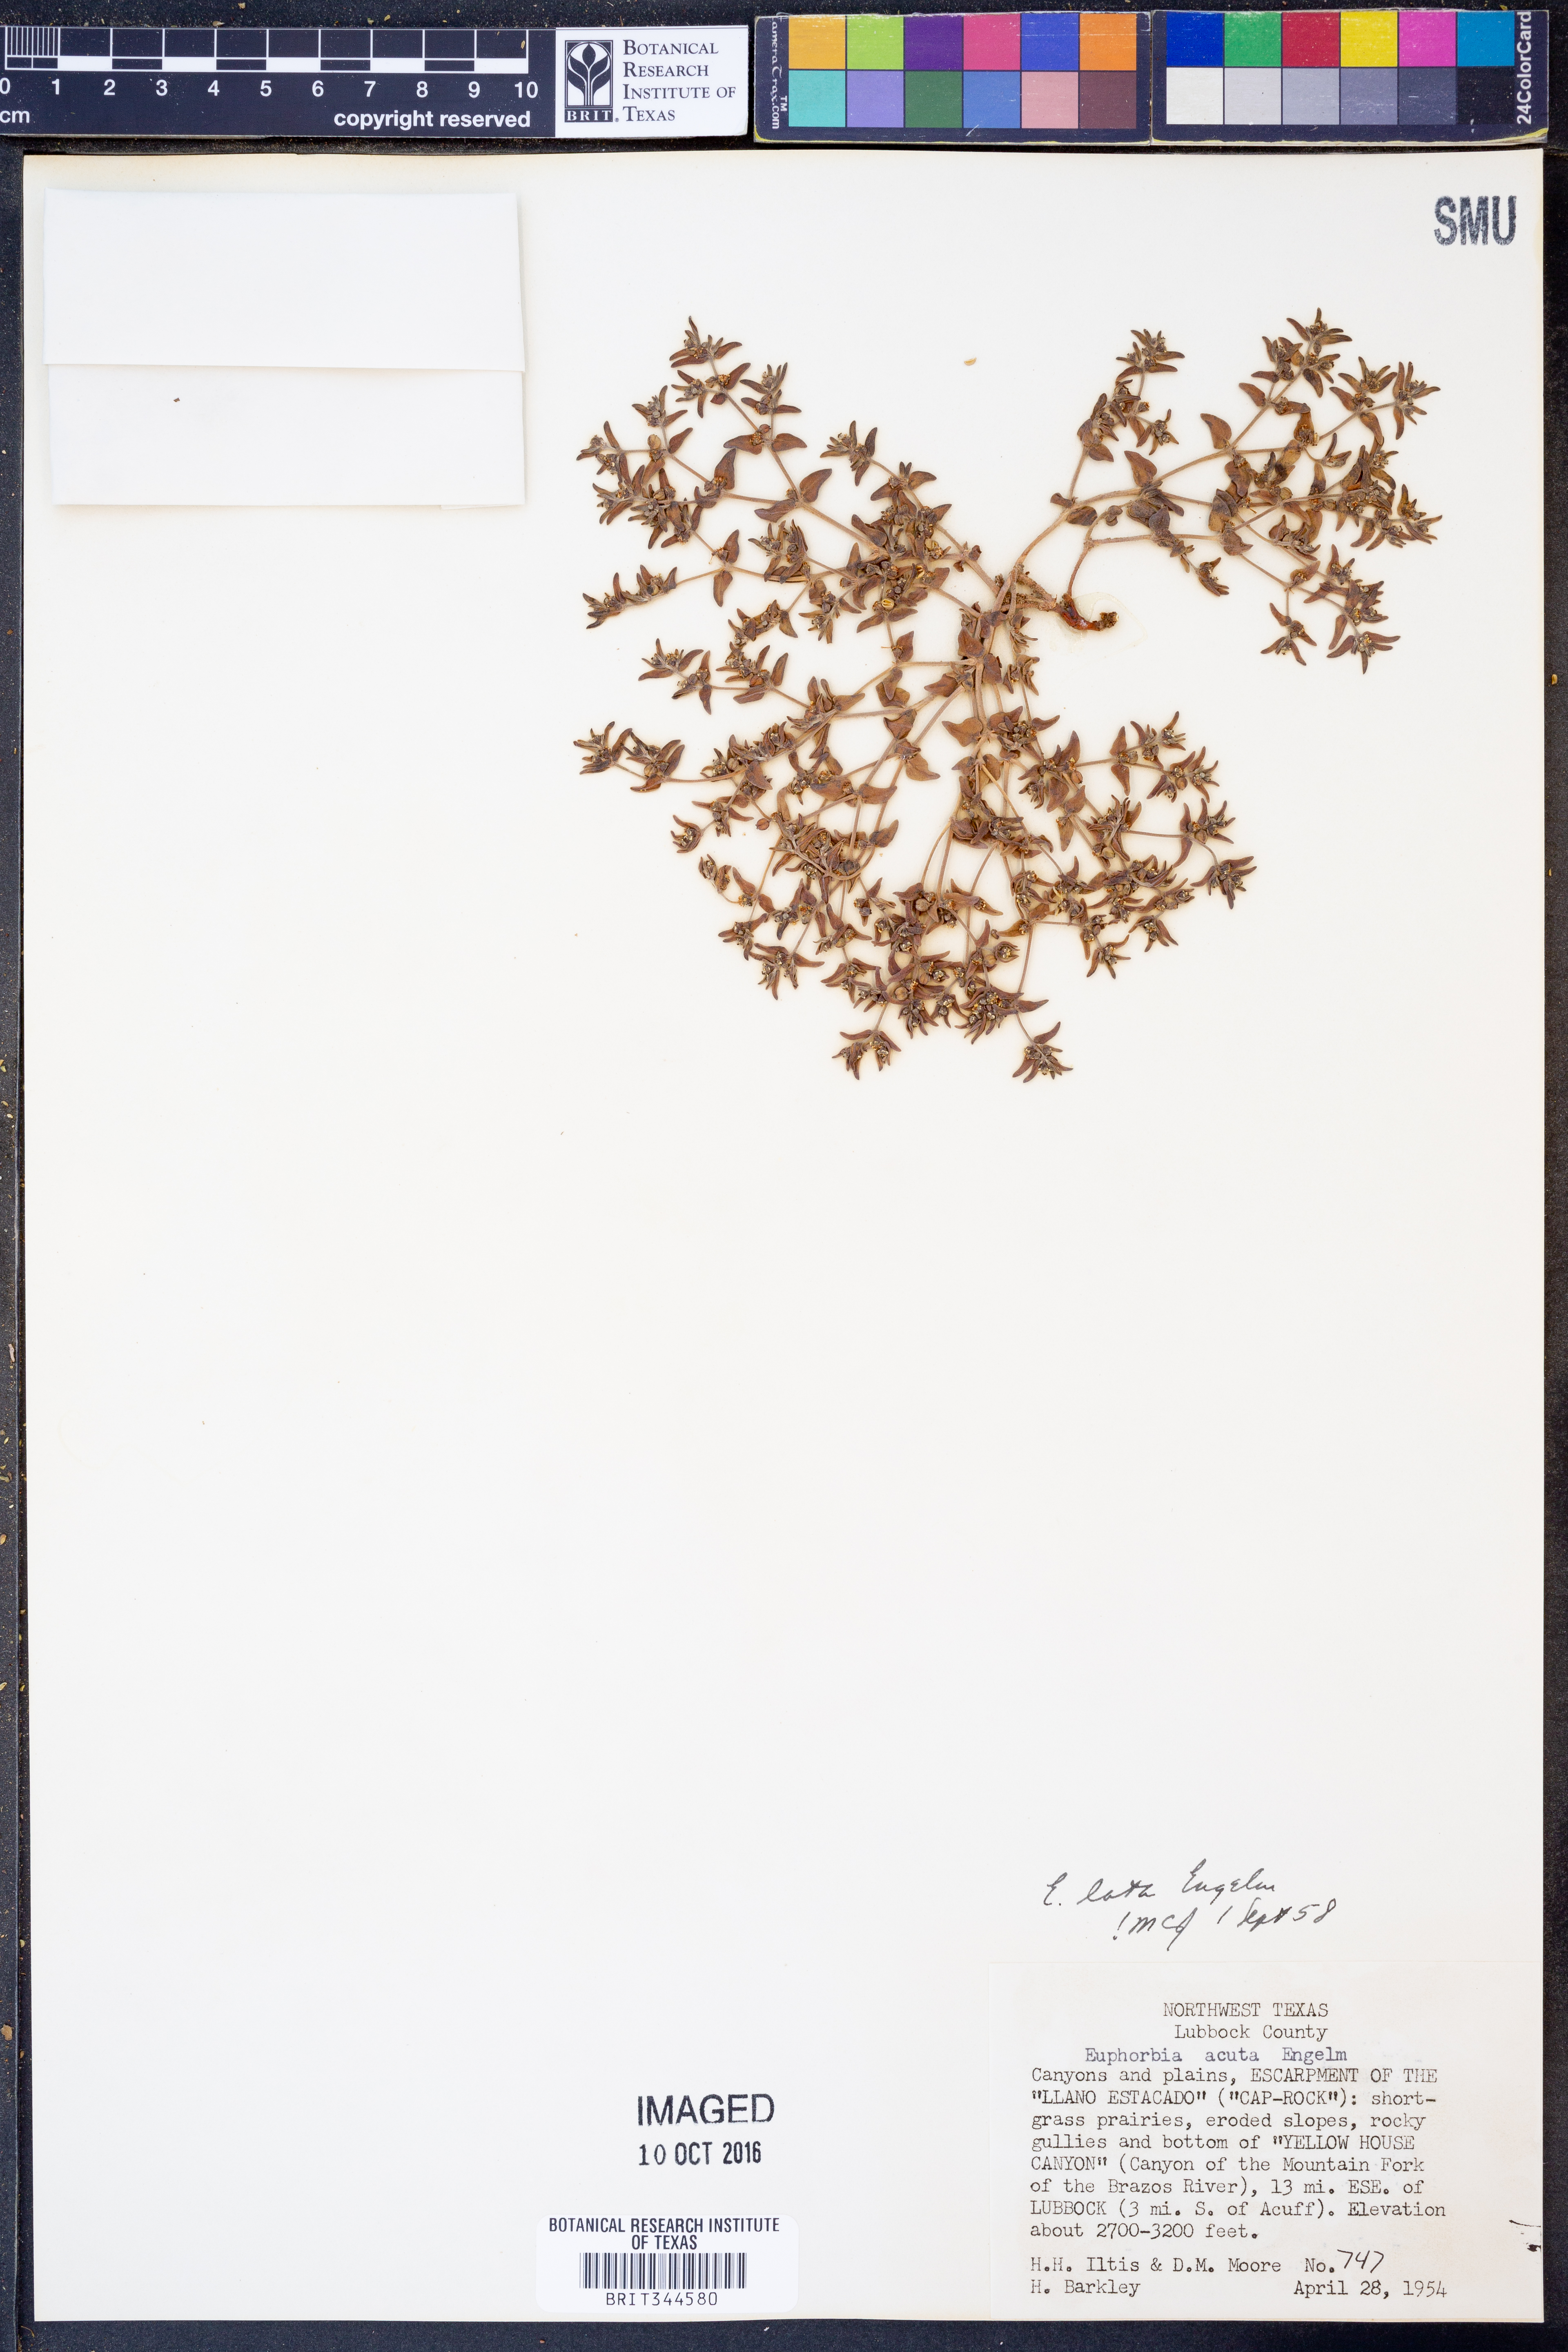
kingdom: Plantae
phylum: Tracheophyta
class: Magnoliopsida
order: Malpighiales
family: Euphorbiaceae
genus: Euphorbia
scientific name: Euphorbia lata
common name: Hoary euphorbia
